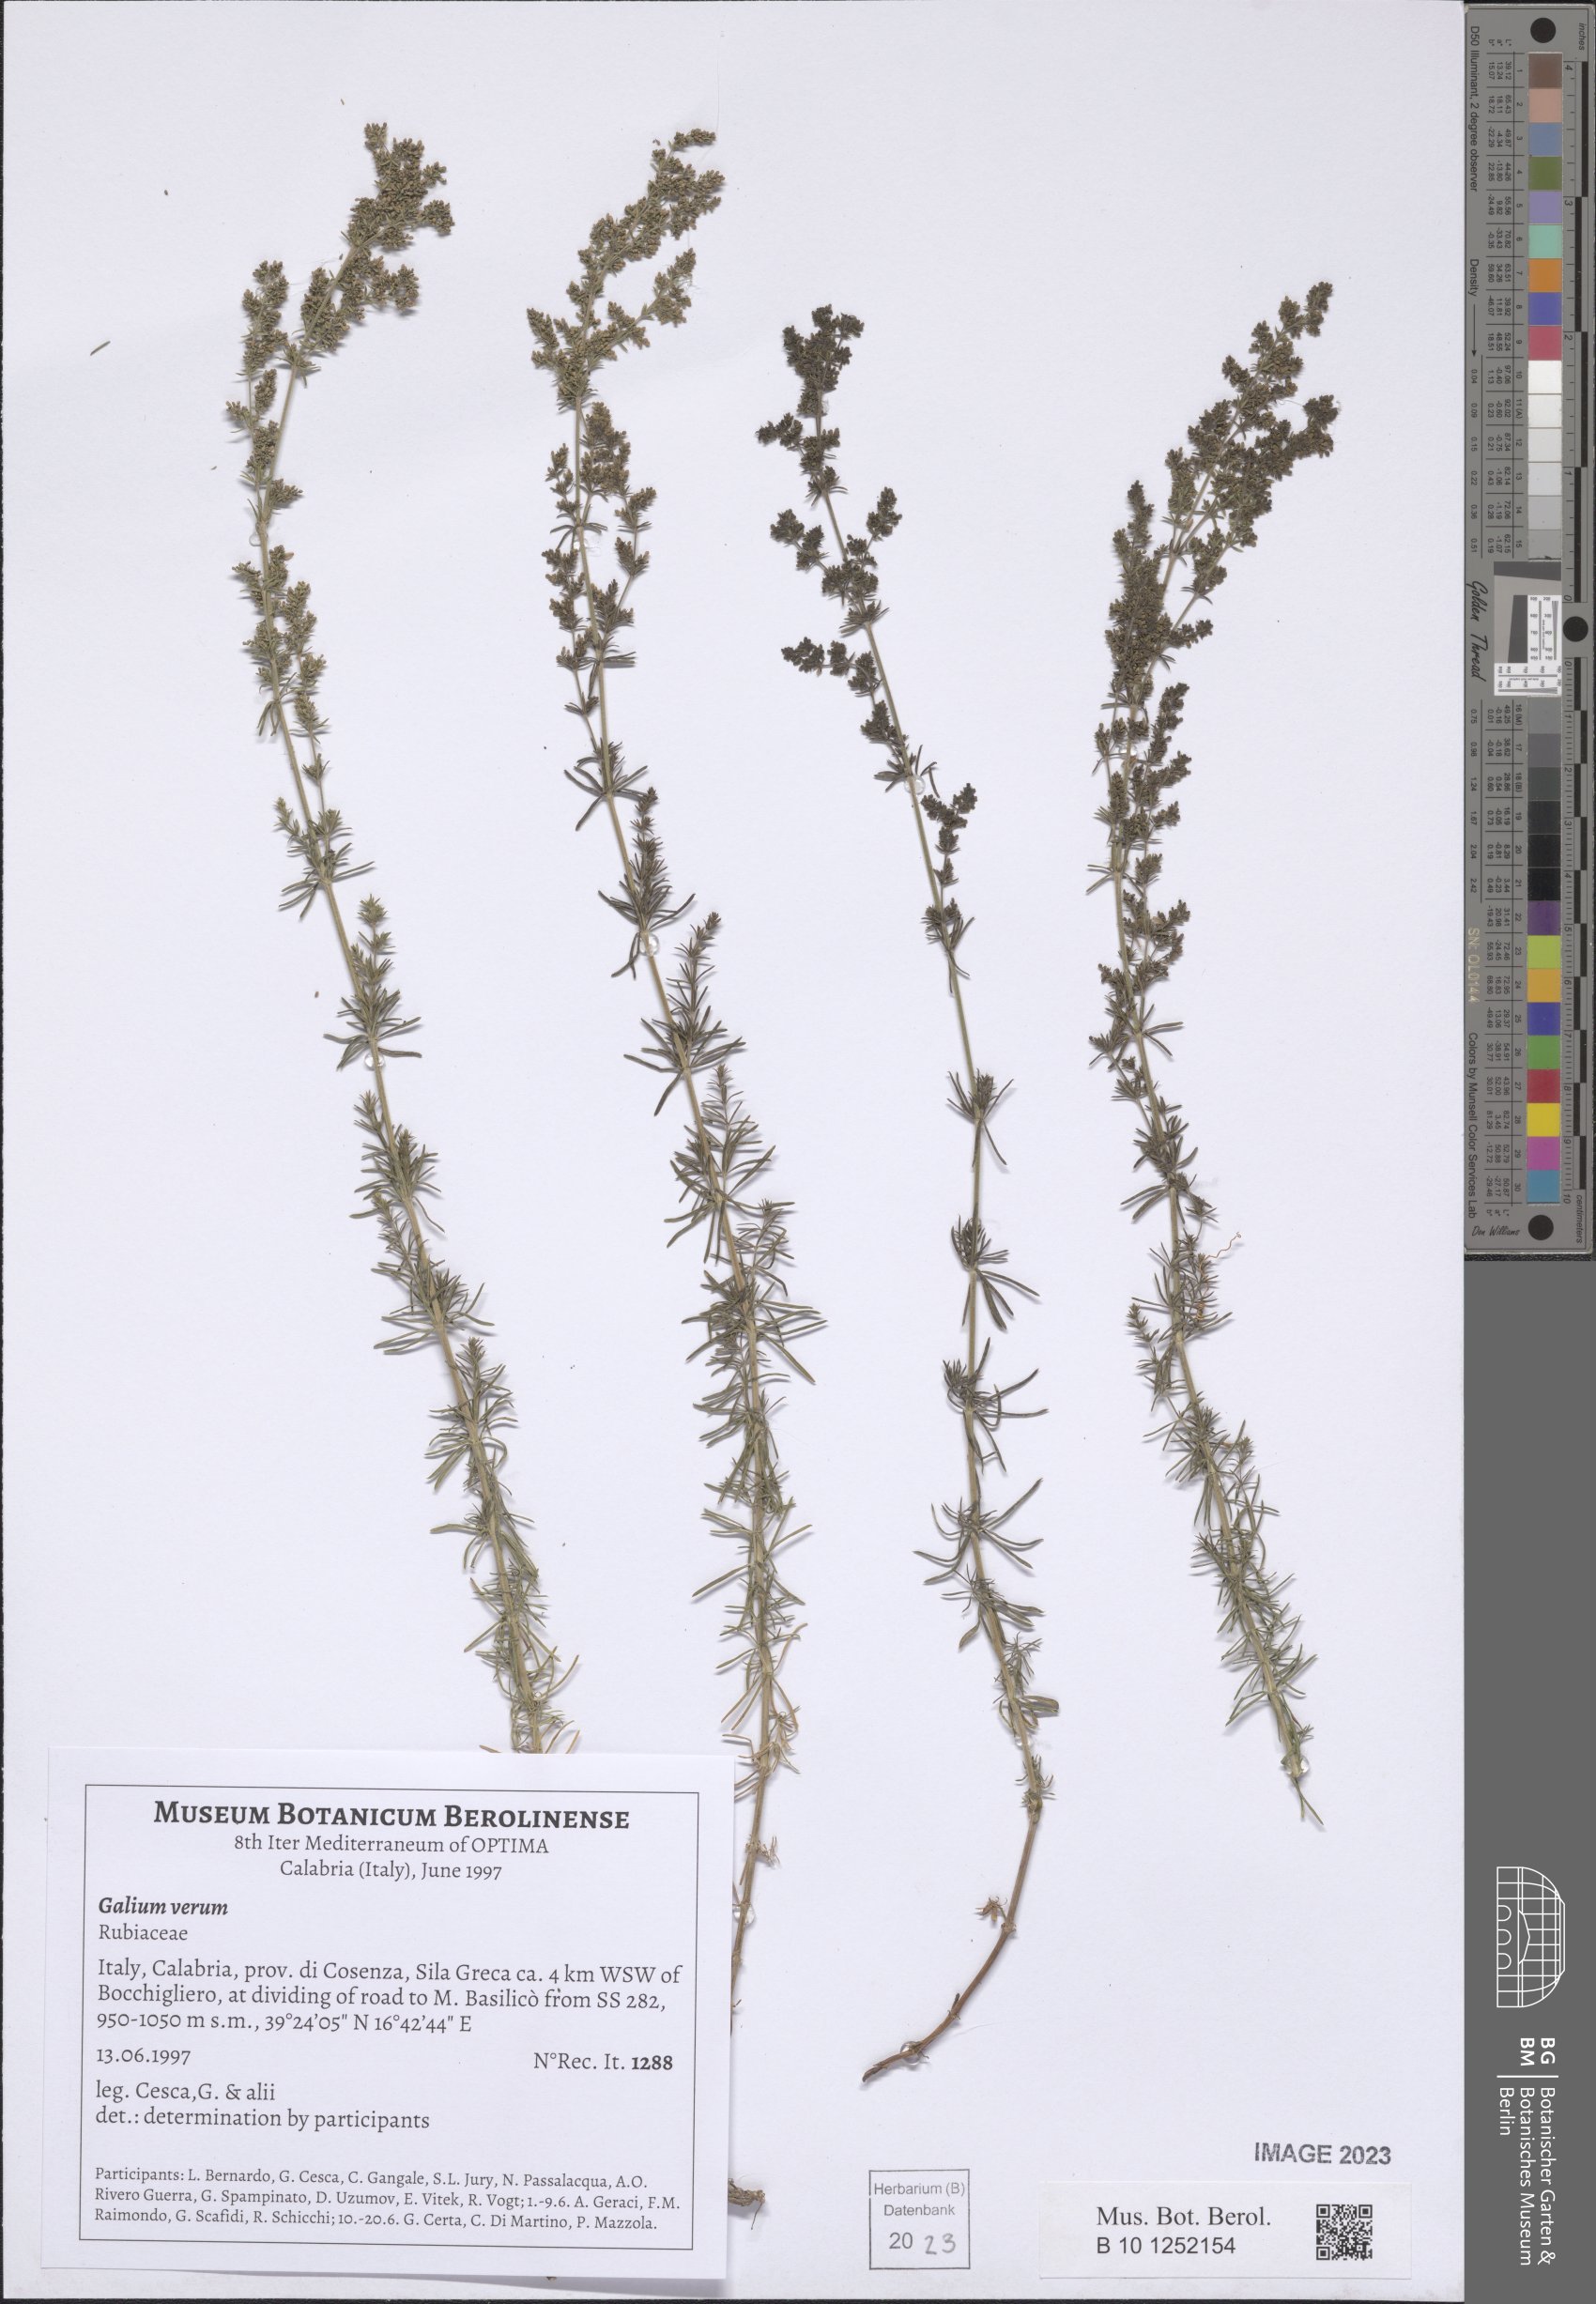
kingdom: Plantae
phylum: Tracheophyta
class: Magnoliopsida
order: Gentianales
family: Rubiaceae
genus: Galium
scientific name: Galium verum
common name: Lady's bedstraw
